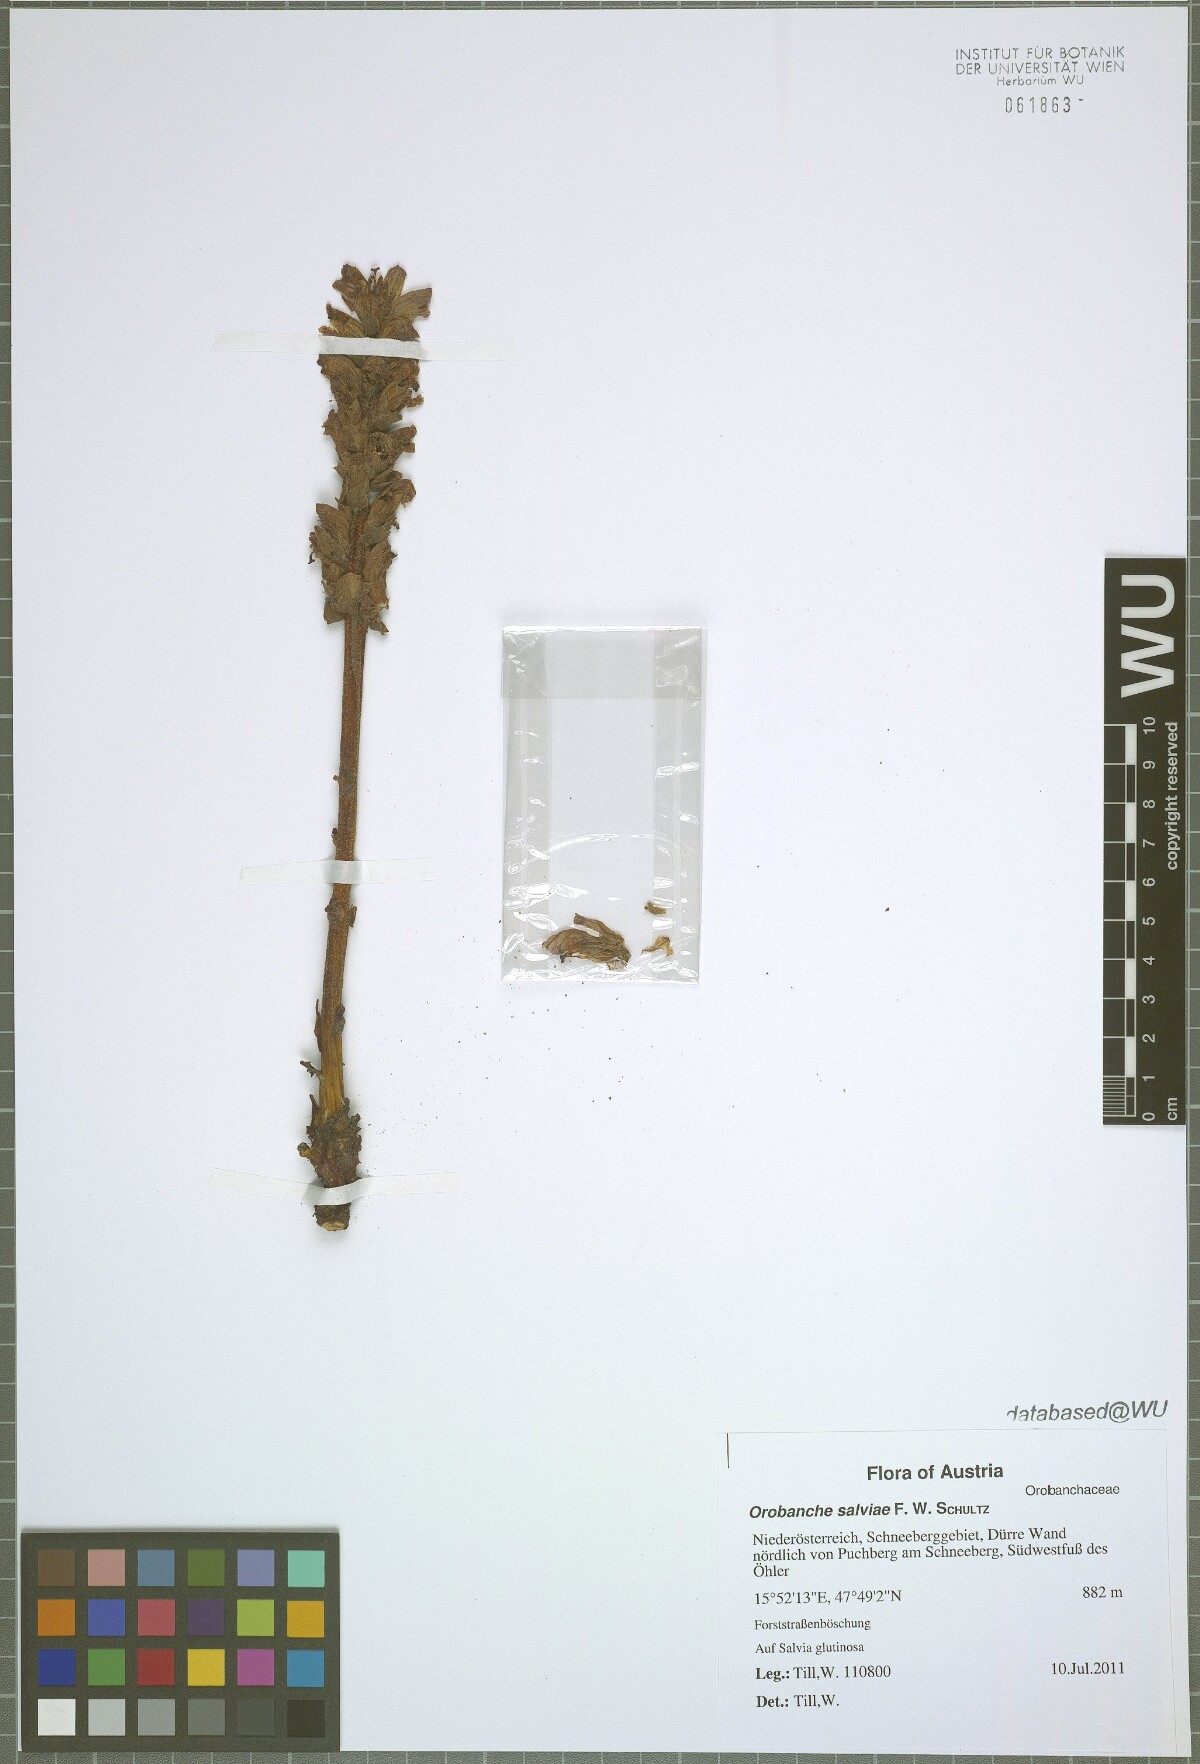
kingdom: Plantae
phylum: Tracheophyta
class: Magnoliopsida
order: Lamiales
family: Orobanchaceae
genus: Orobanche
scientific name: Orobanche salviae
